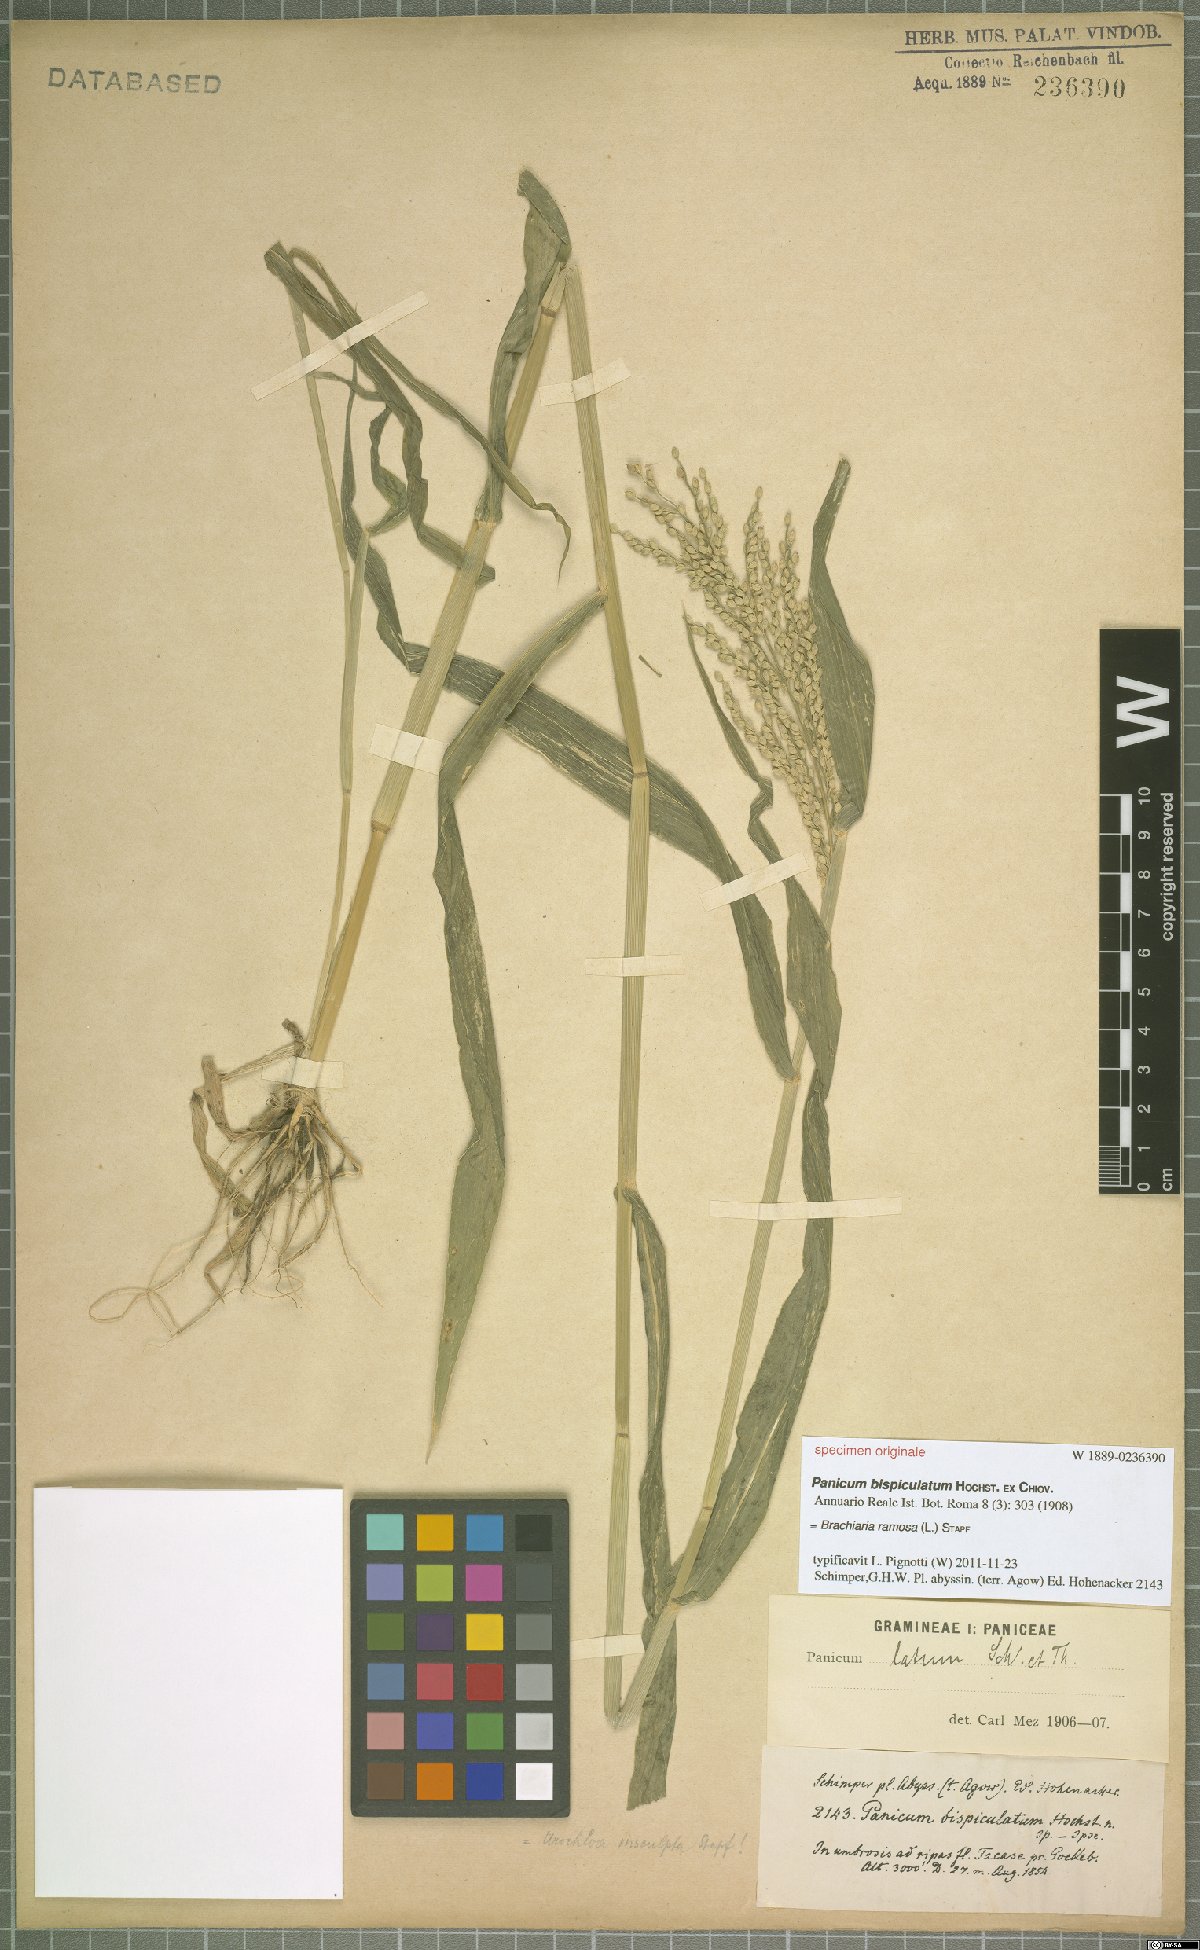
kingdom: Plantae
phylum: Tracheophyta
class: Liliopsida
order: Poales
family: Poaceae
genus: Urochloa
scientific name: Urochloa ramosa
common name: Browntop millet
